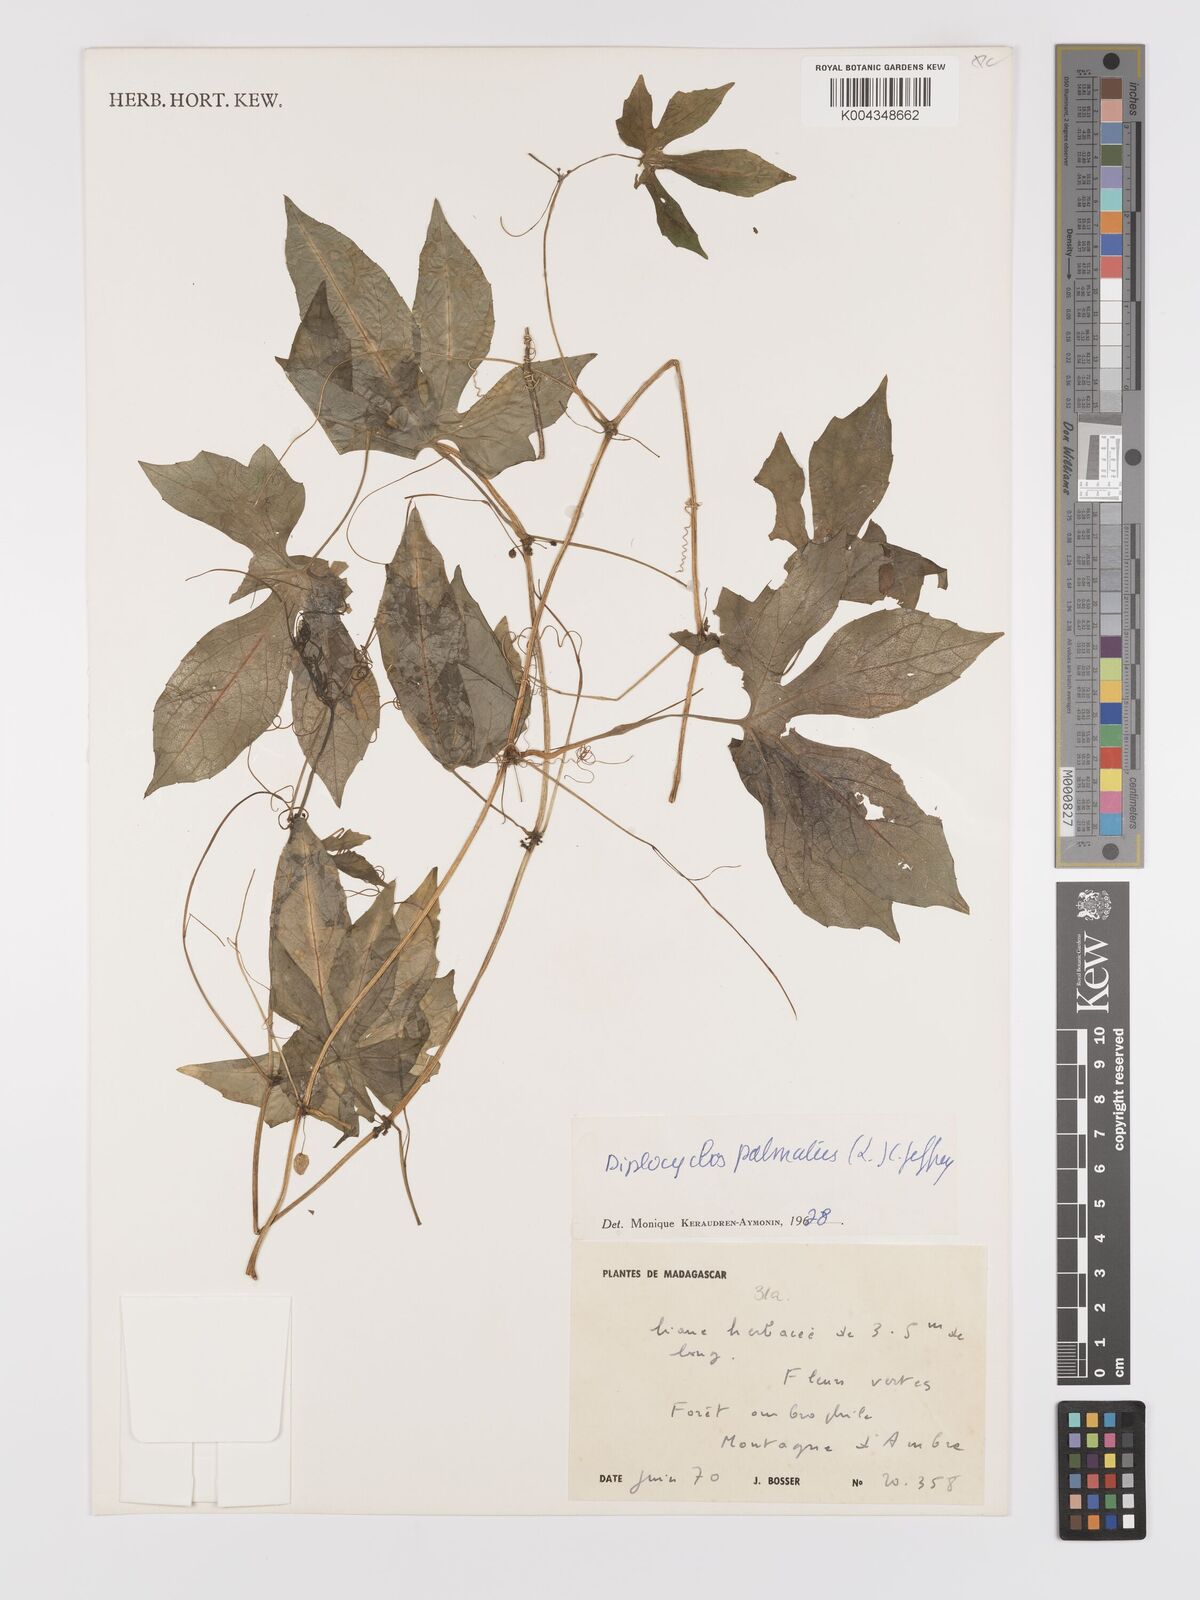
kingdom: Plantae
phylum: Tracheophyta
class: Magnoliopsida
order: Cucurbitales
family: Cucurbitaceae
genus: Diplocyclos
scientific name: Diplocyclos palmatus
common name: Striped-cucumber
